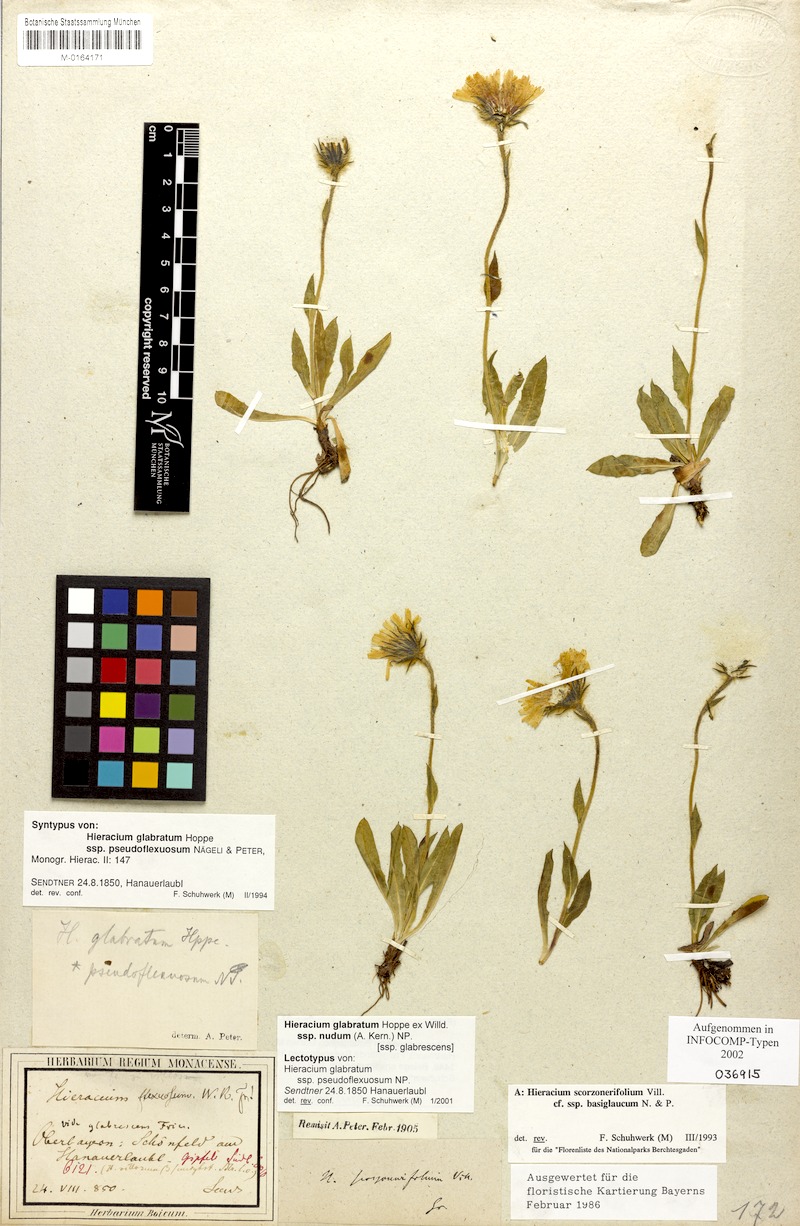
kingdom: Plantae
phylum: Tracheophyta
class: Magnoliopsida
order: Asterales
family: Asteraceae
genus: Hieracium
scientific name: Hieracium glabratum
